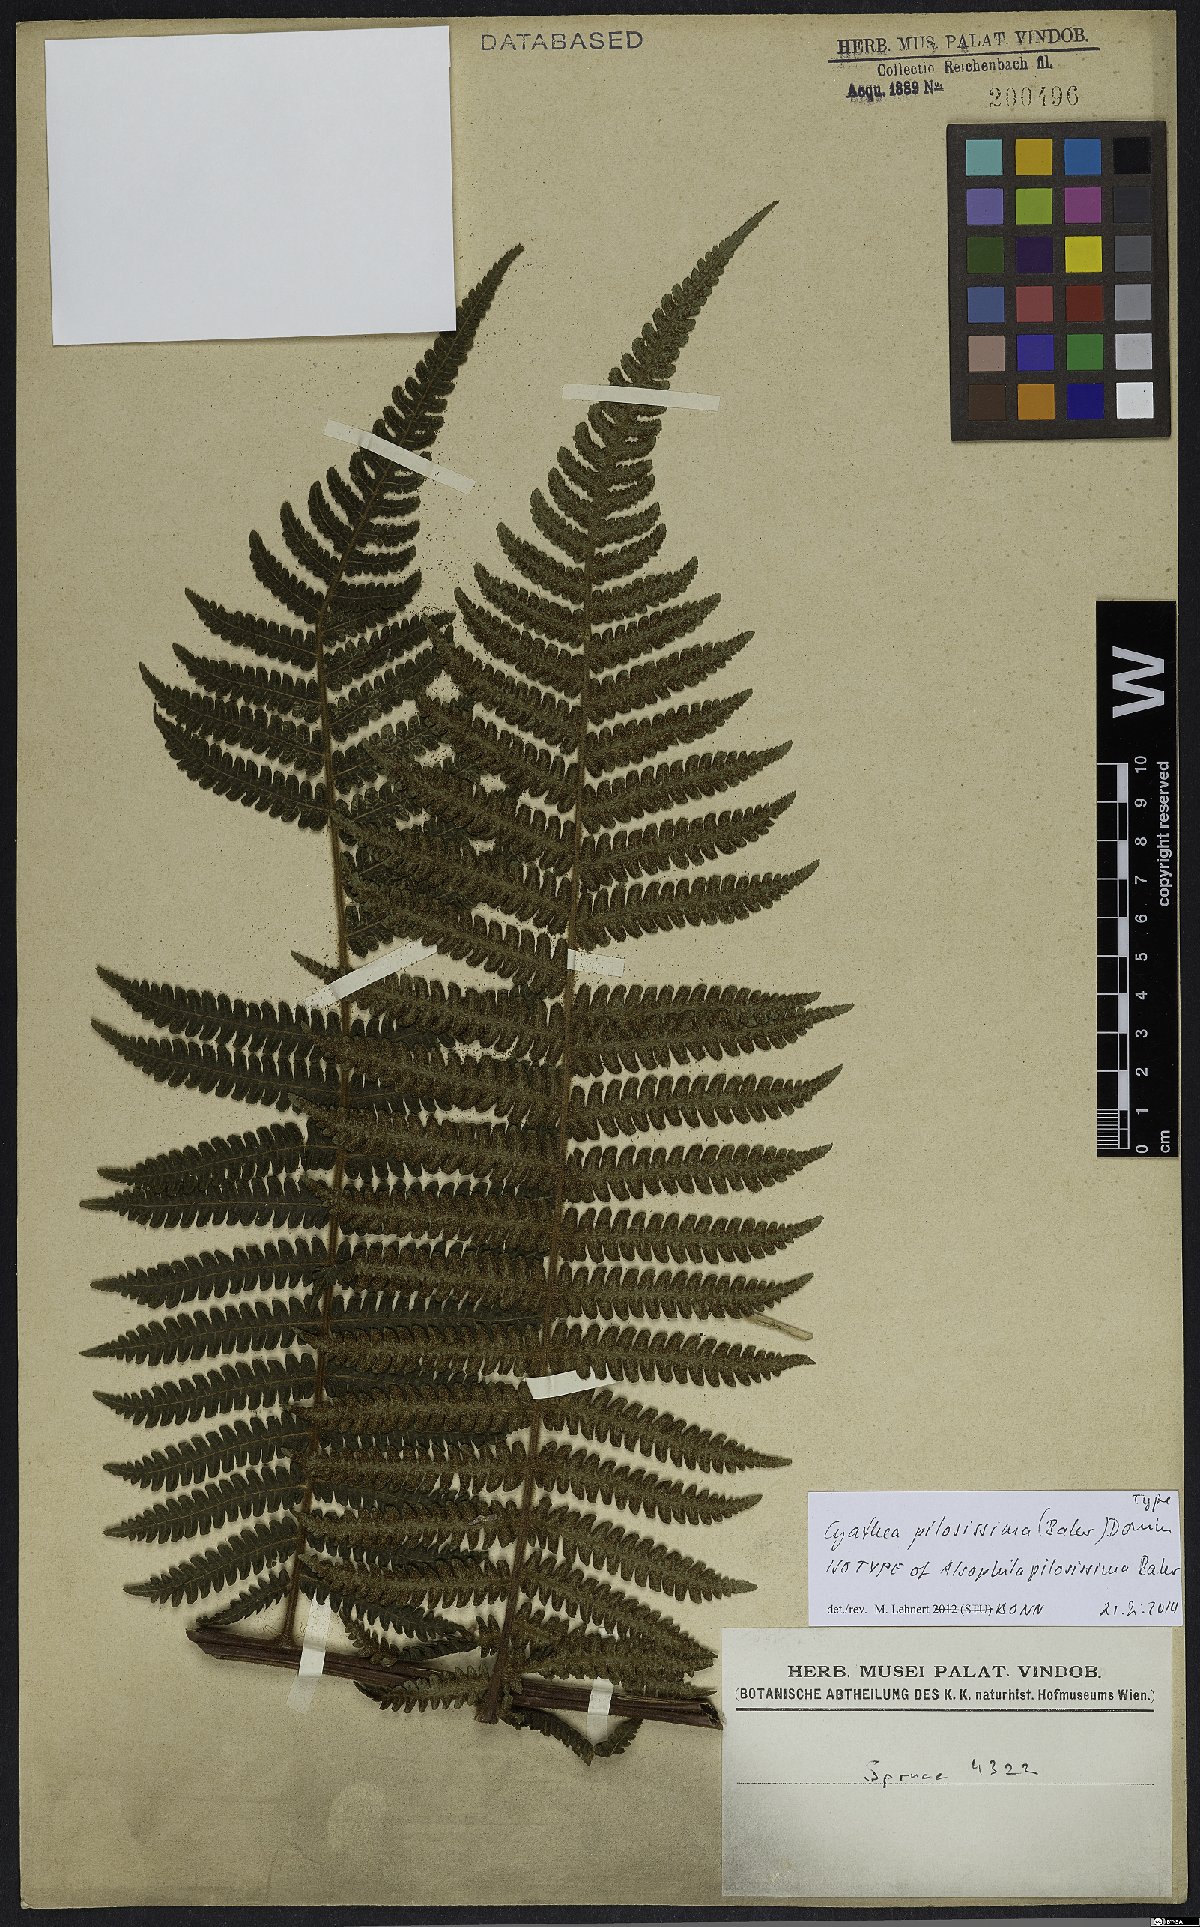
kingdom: Plantae
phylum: Tracheophyta
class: Polypodiopsida
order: Cyatheales
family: Cyatheaceae
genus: Cyathea
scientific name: Cyathea pilosissima
